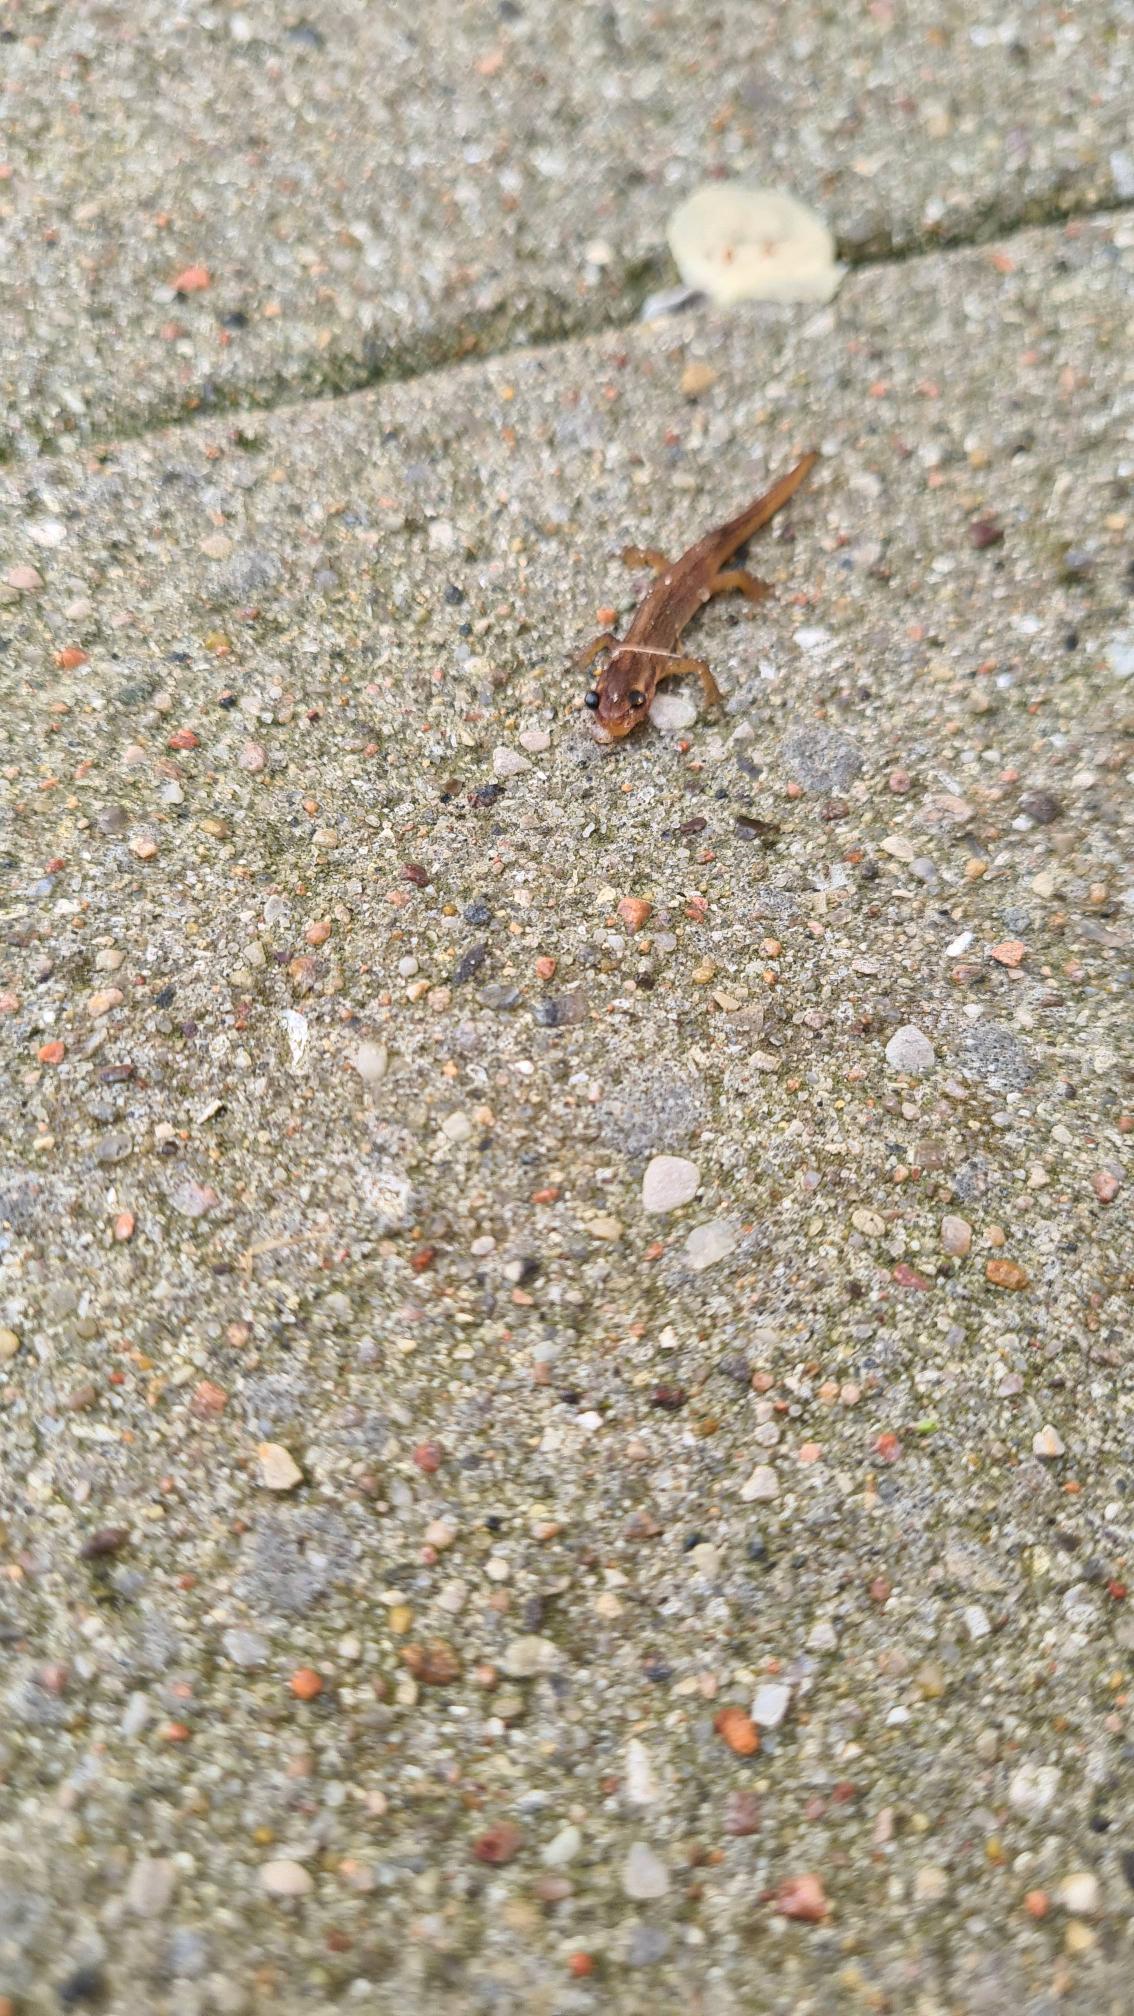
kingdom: Animalia
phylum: Chordata
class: Amphibia
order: Caudata
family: Salamandridae
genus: Lissotriton
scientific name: Lissotriton vulgaris
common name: Lille vandsalamander
